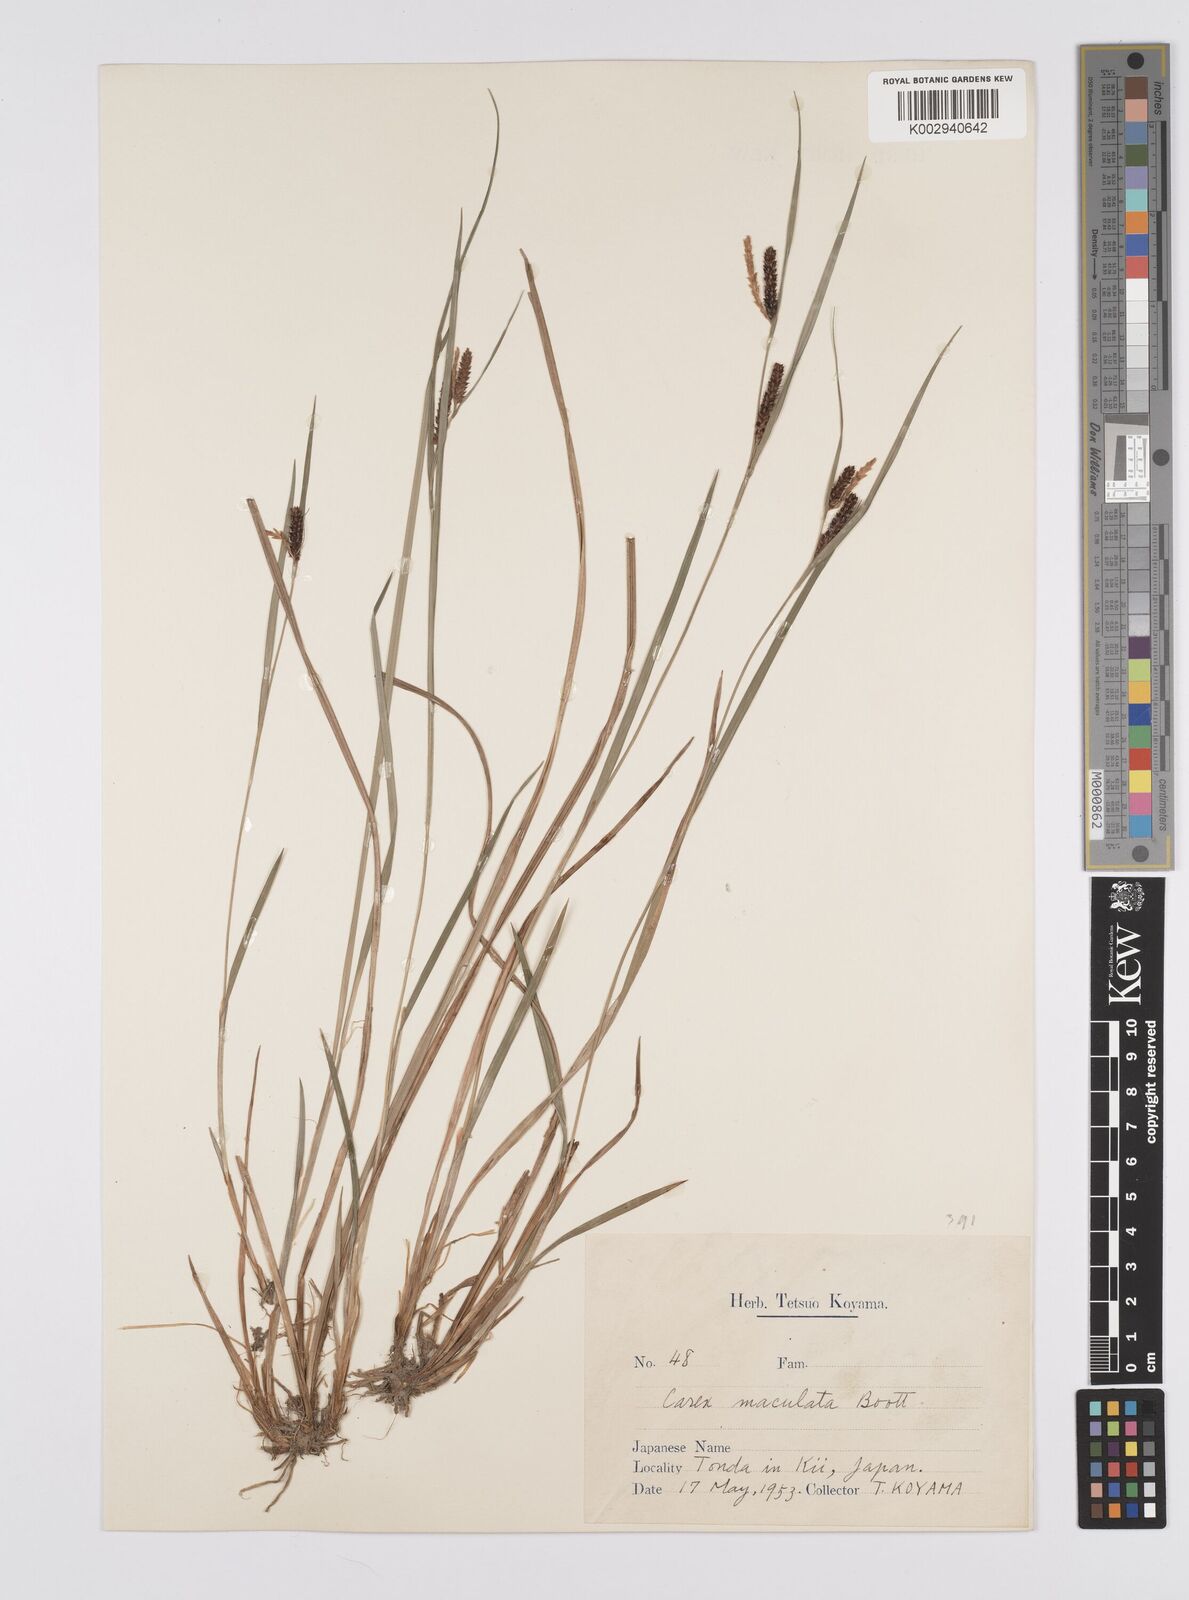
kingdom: Plantae
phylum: Tracheophyta
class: Liliopsida
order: Poales
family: Cyperaceae
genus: Carex
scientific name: Carex maculata
